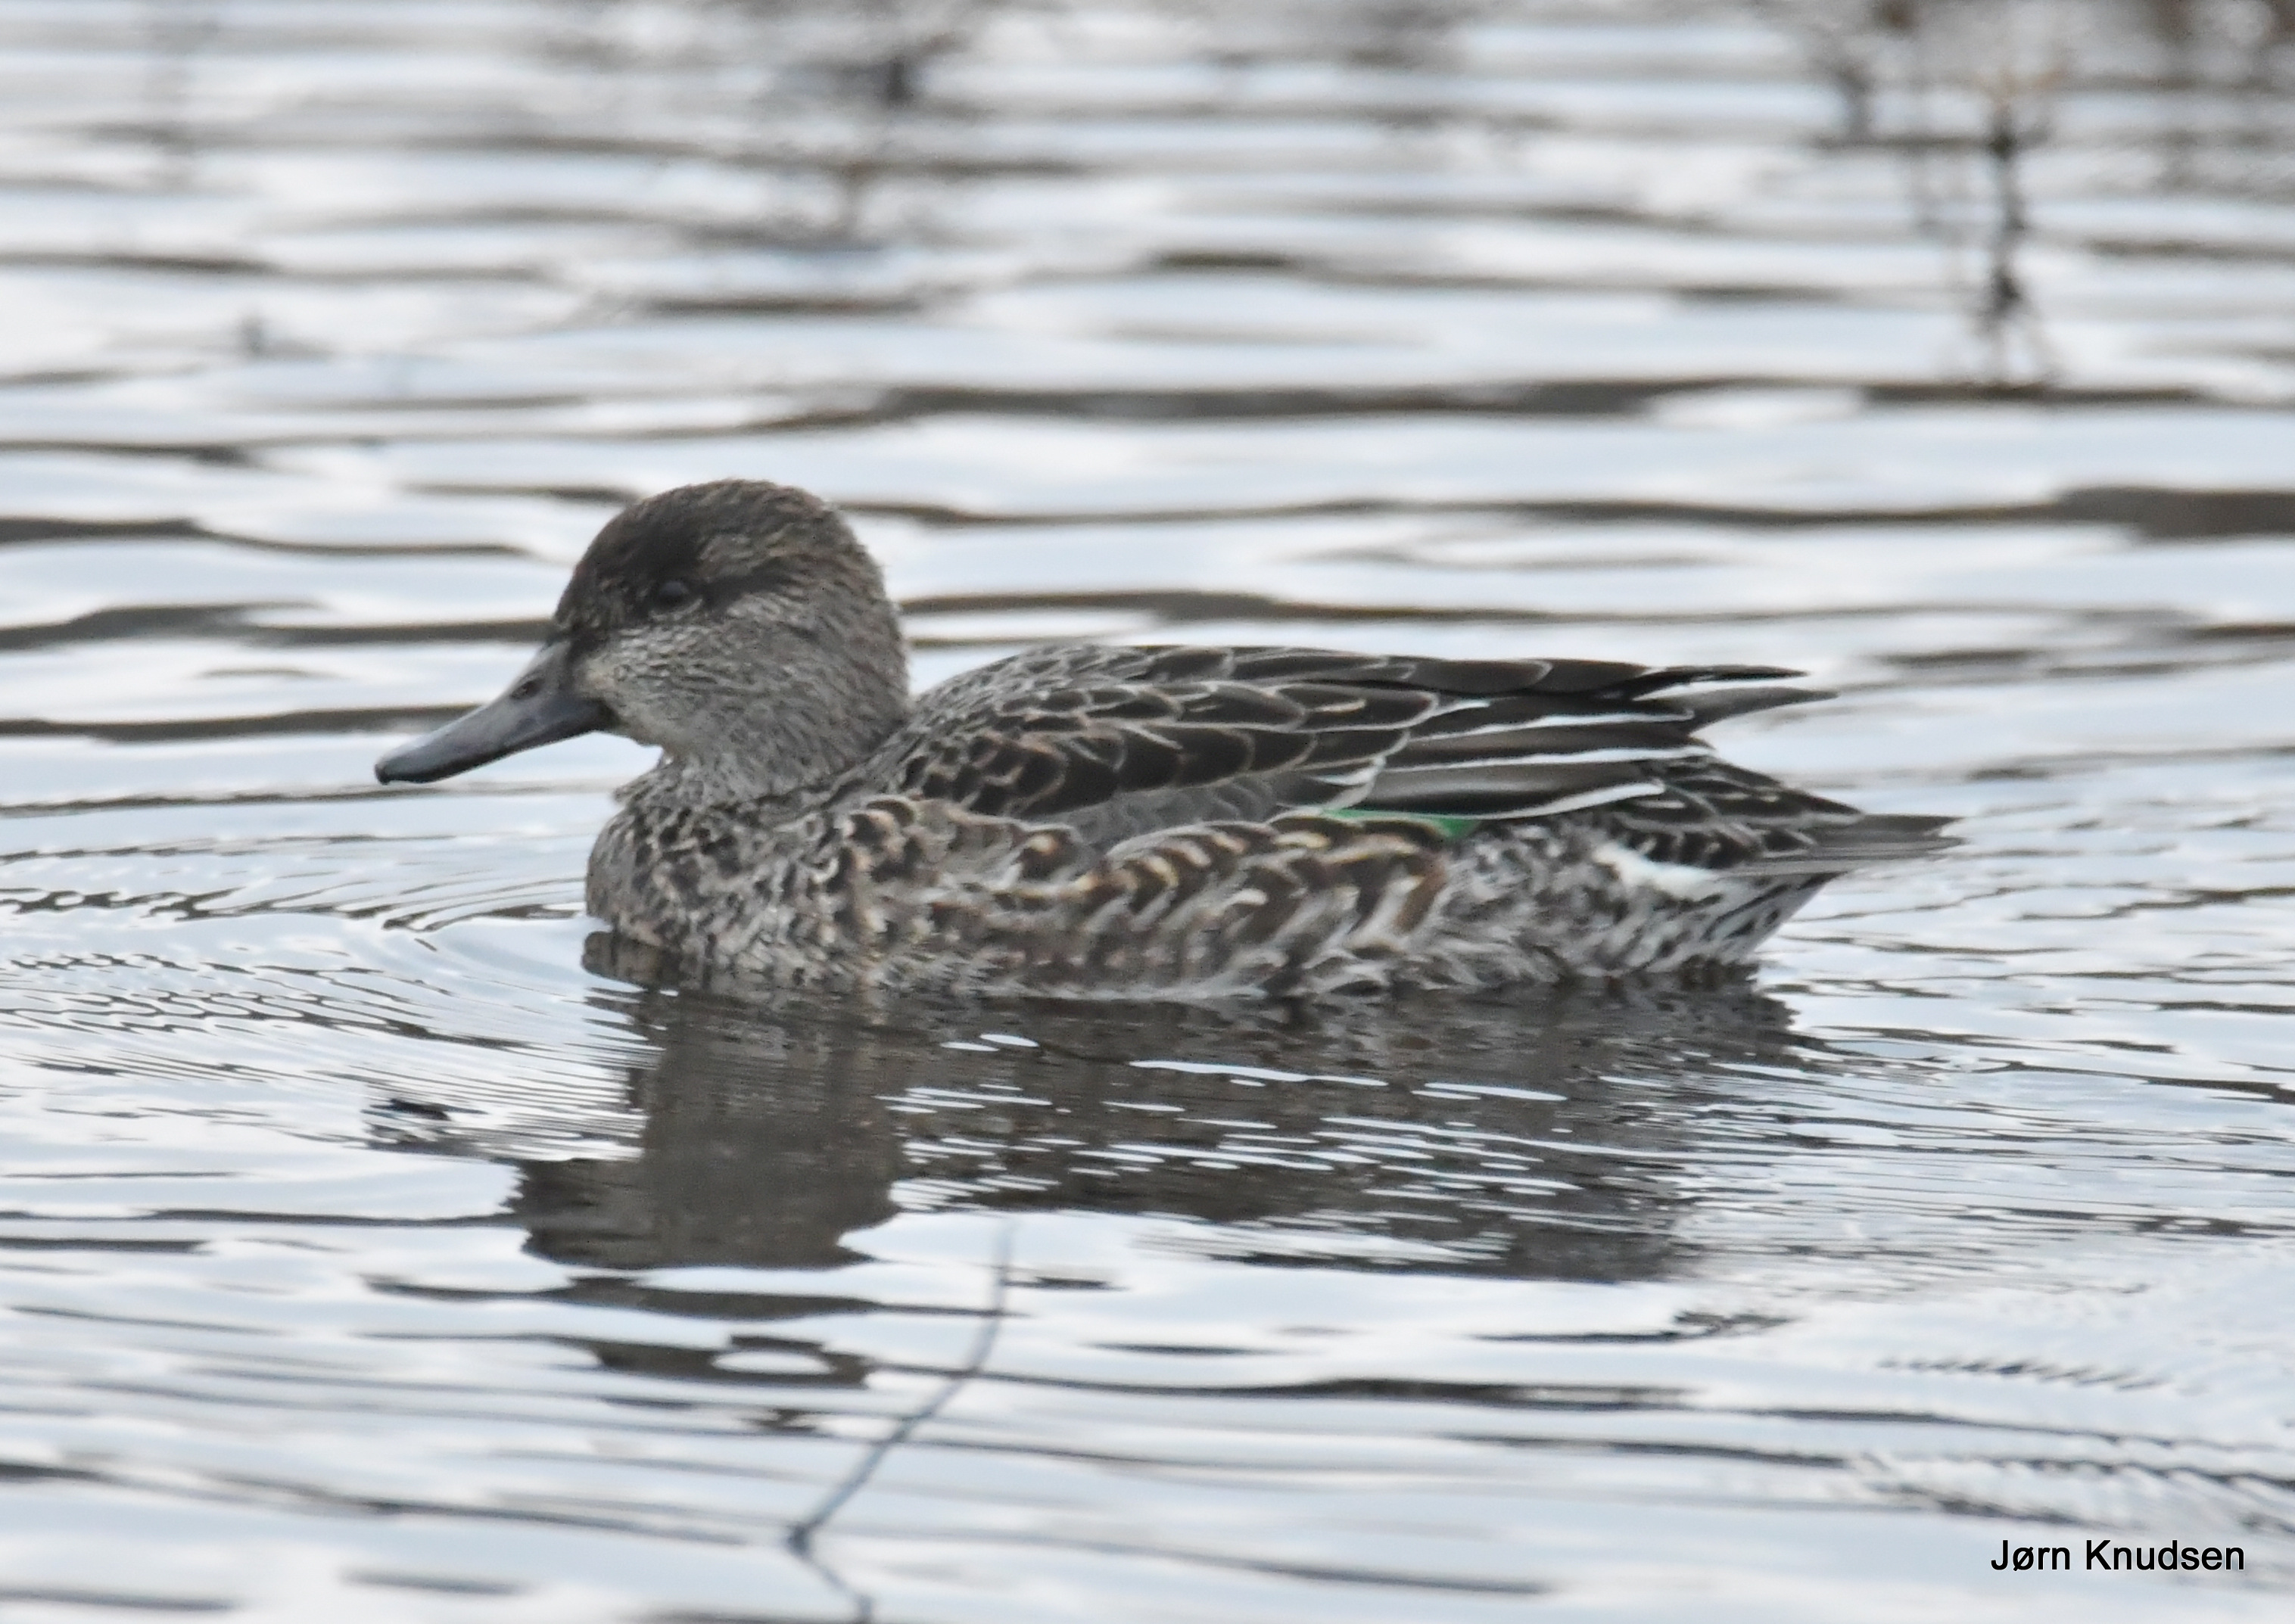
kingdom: Animalia
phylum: Chordata
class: Aves
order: Anseriformes
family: Anatidae
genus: Anas
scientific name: Anas crecca
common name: Krikand
